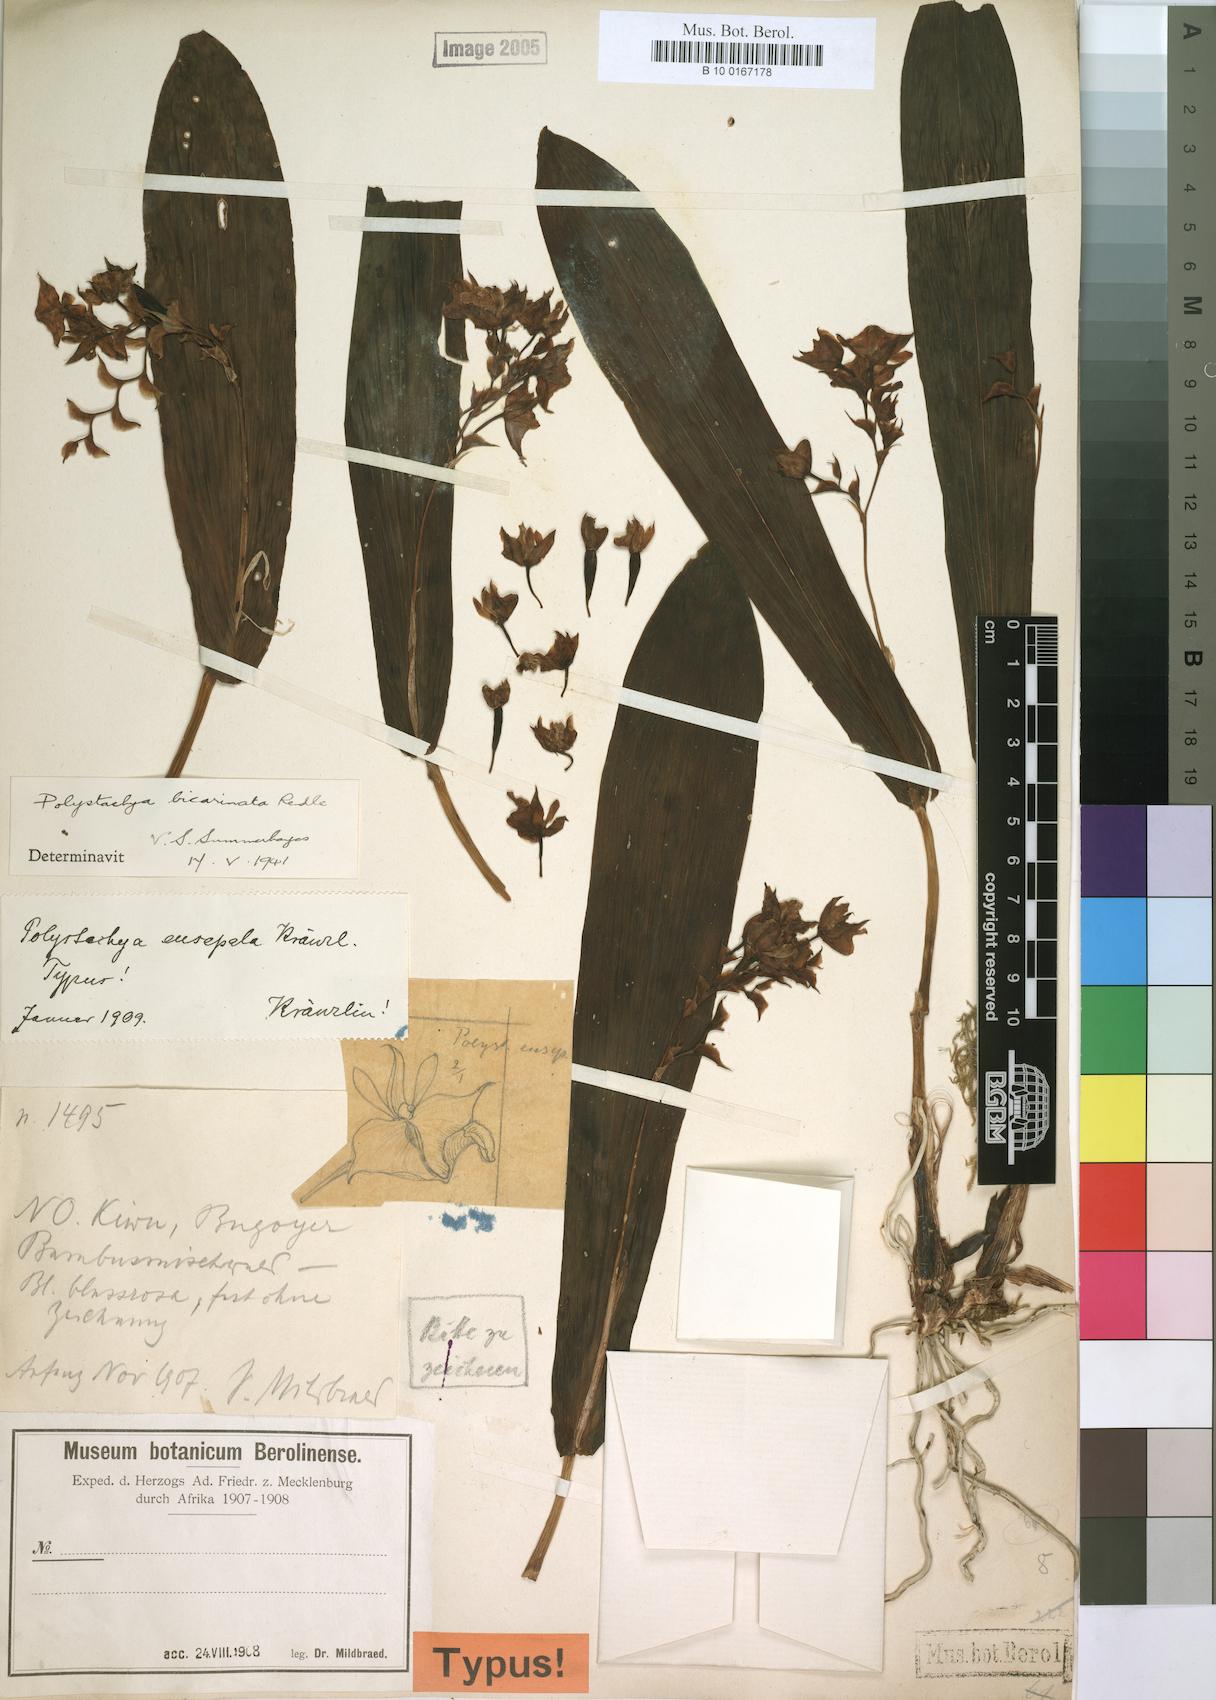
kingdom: Plantae
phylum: Tracheophyta
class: Liliopsida
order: Asparagales
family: Orchidaceae
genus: Polystachya
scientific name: Polystachya bicarinata
